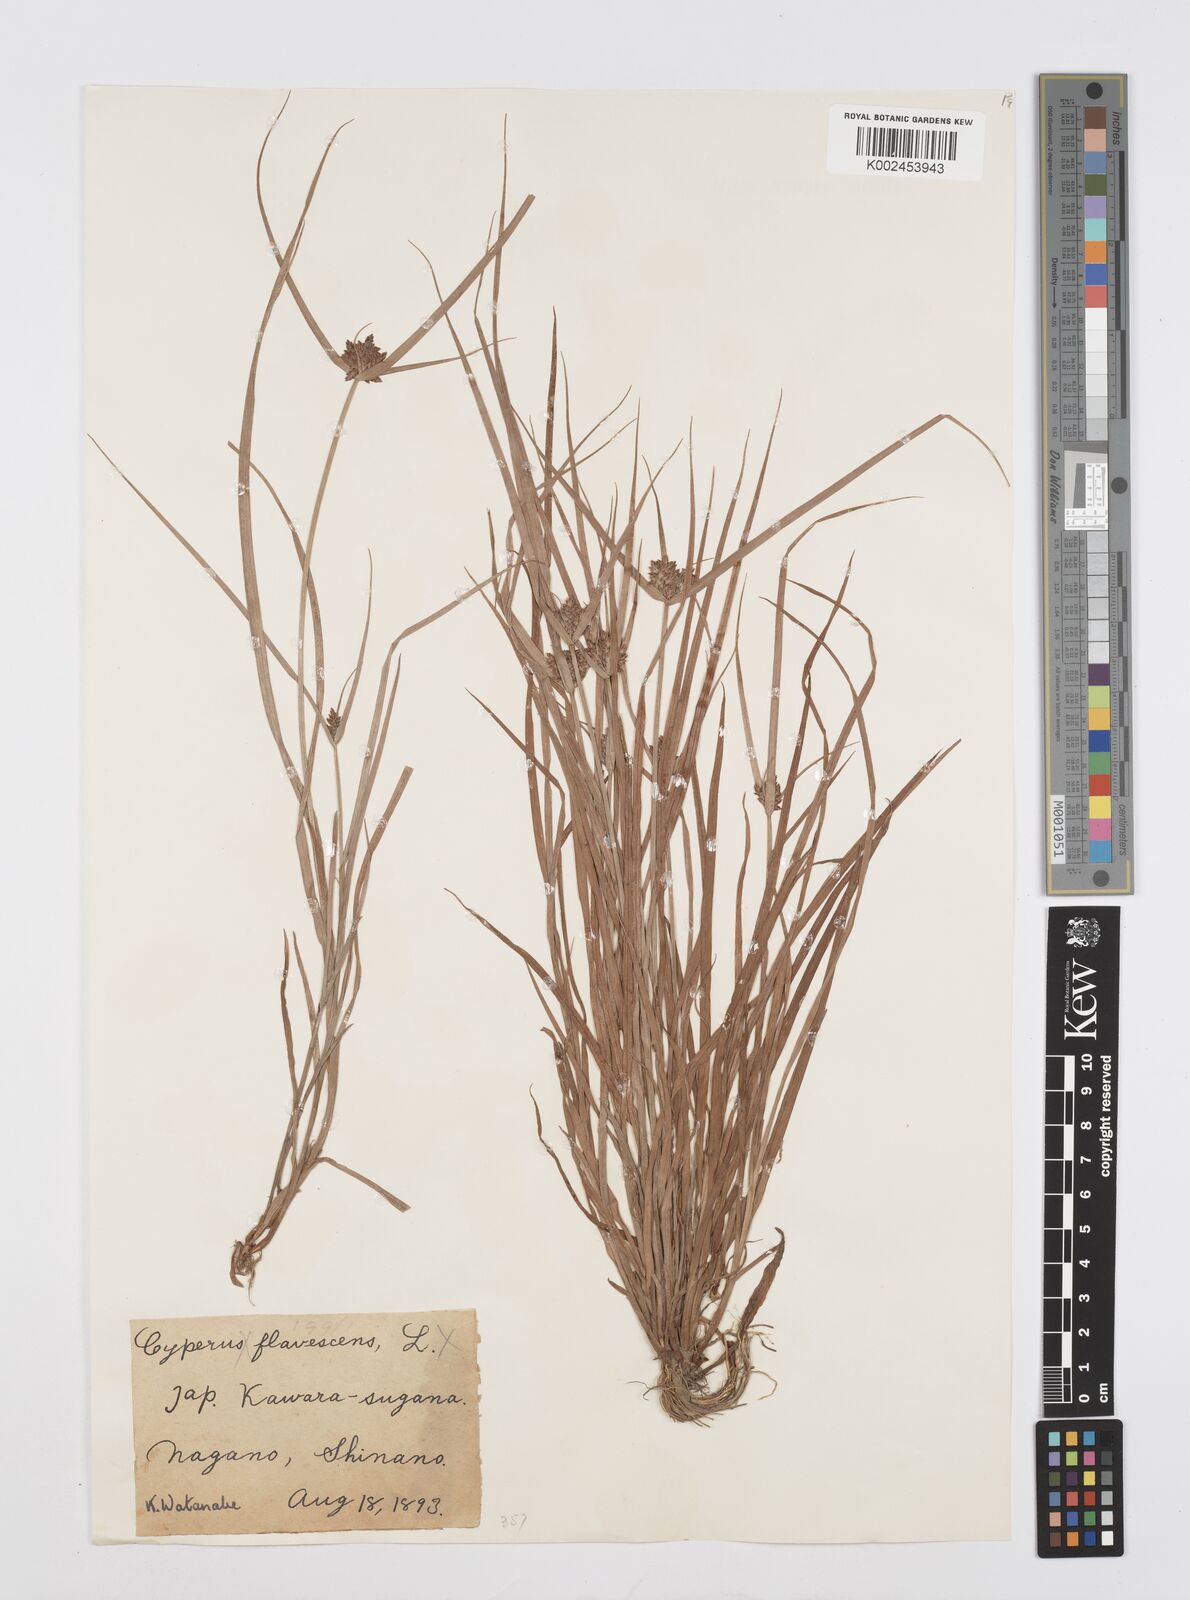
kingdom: Plantae
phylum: Tracheophyta
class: Liliopsida
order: Poales
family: Cyperaceae
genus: Cyperus
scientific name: Cyperus sanguinolentus
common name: Purpleglume flatsedge
